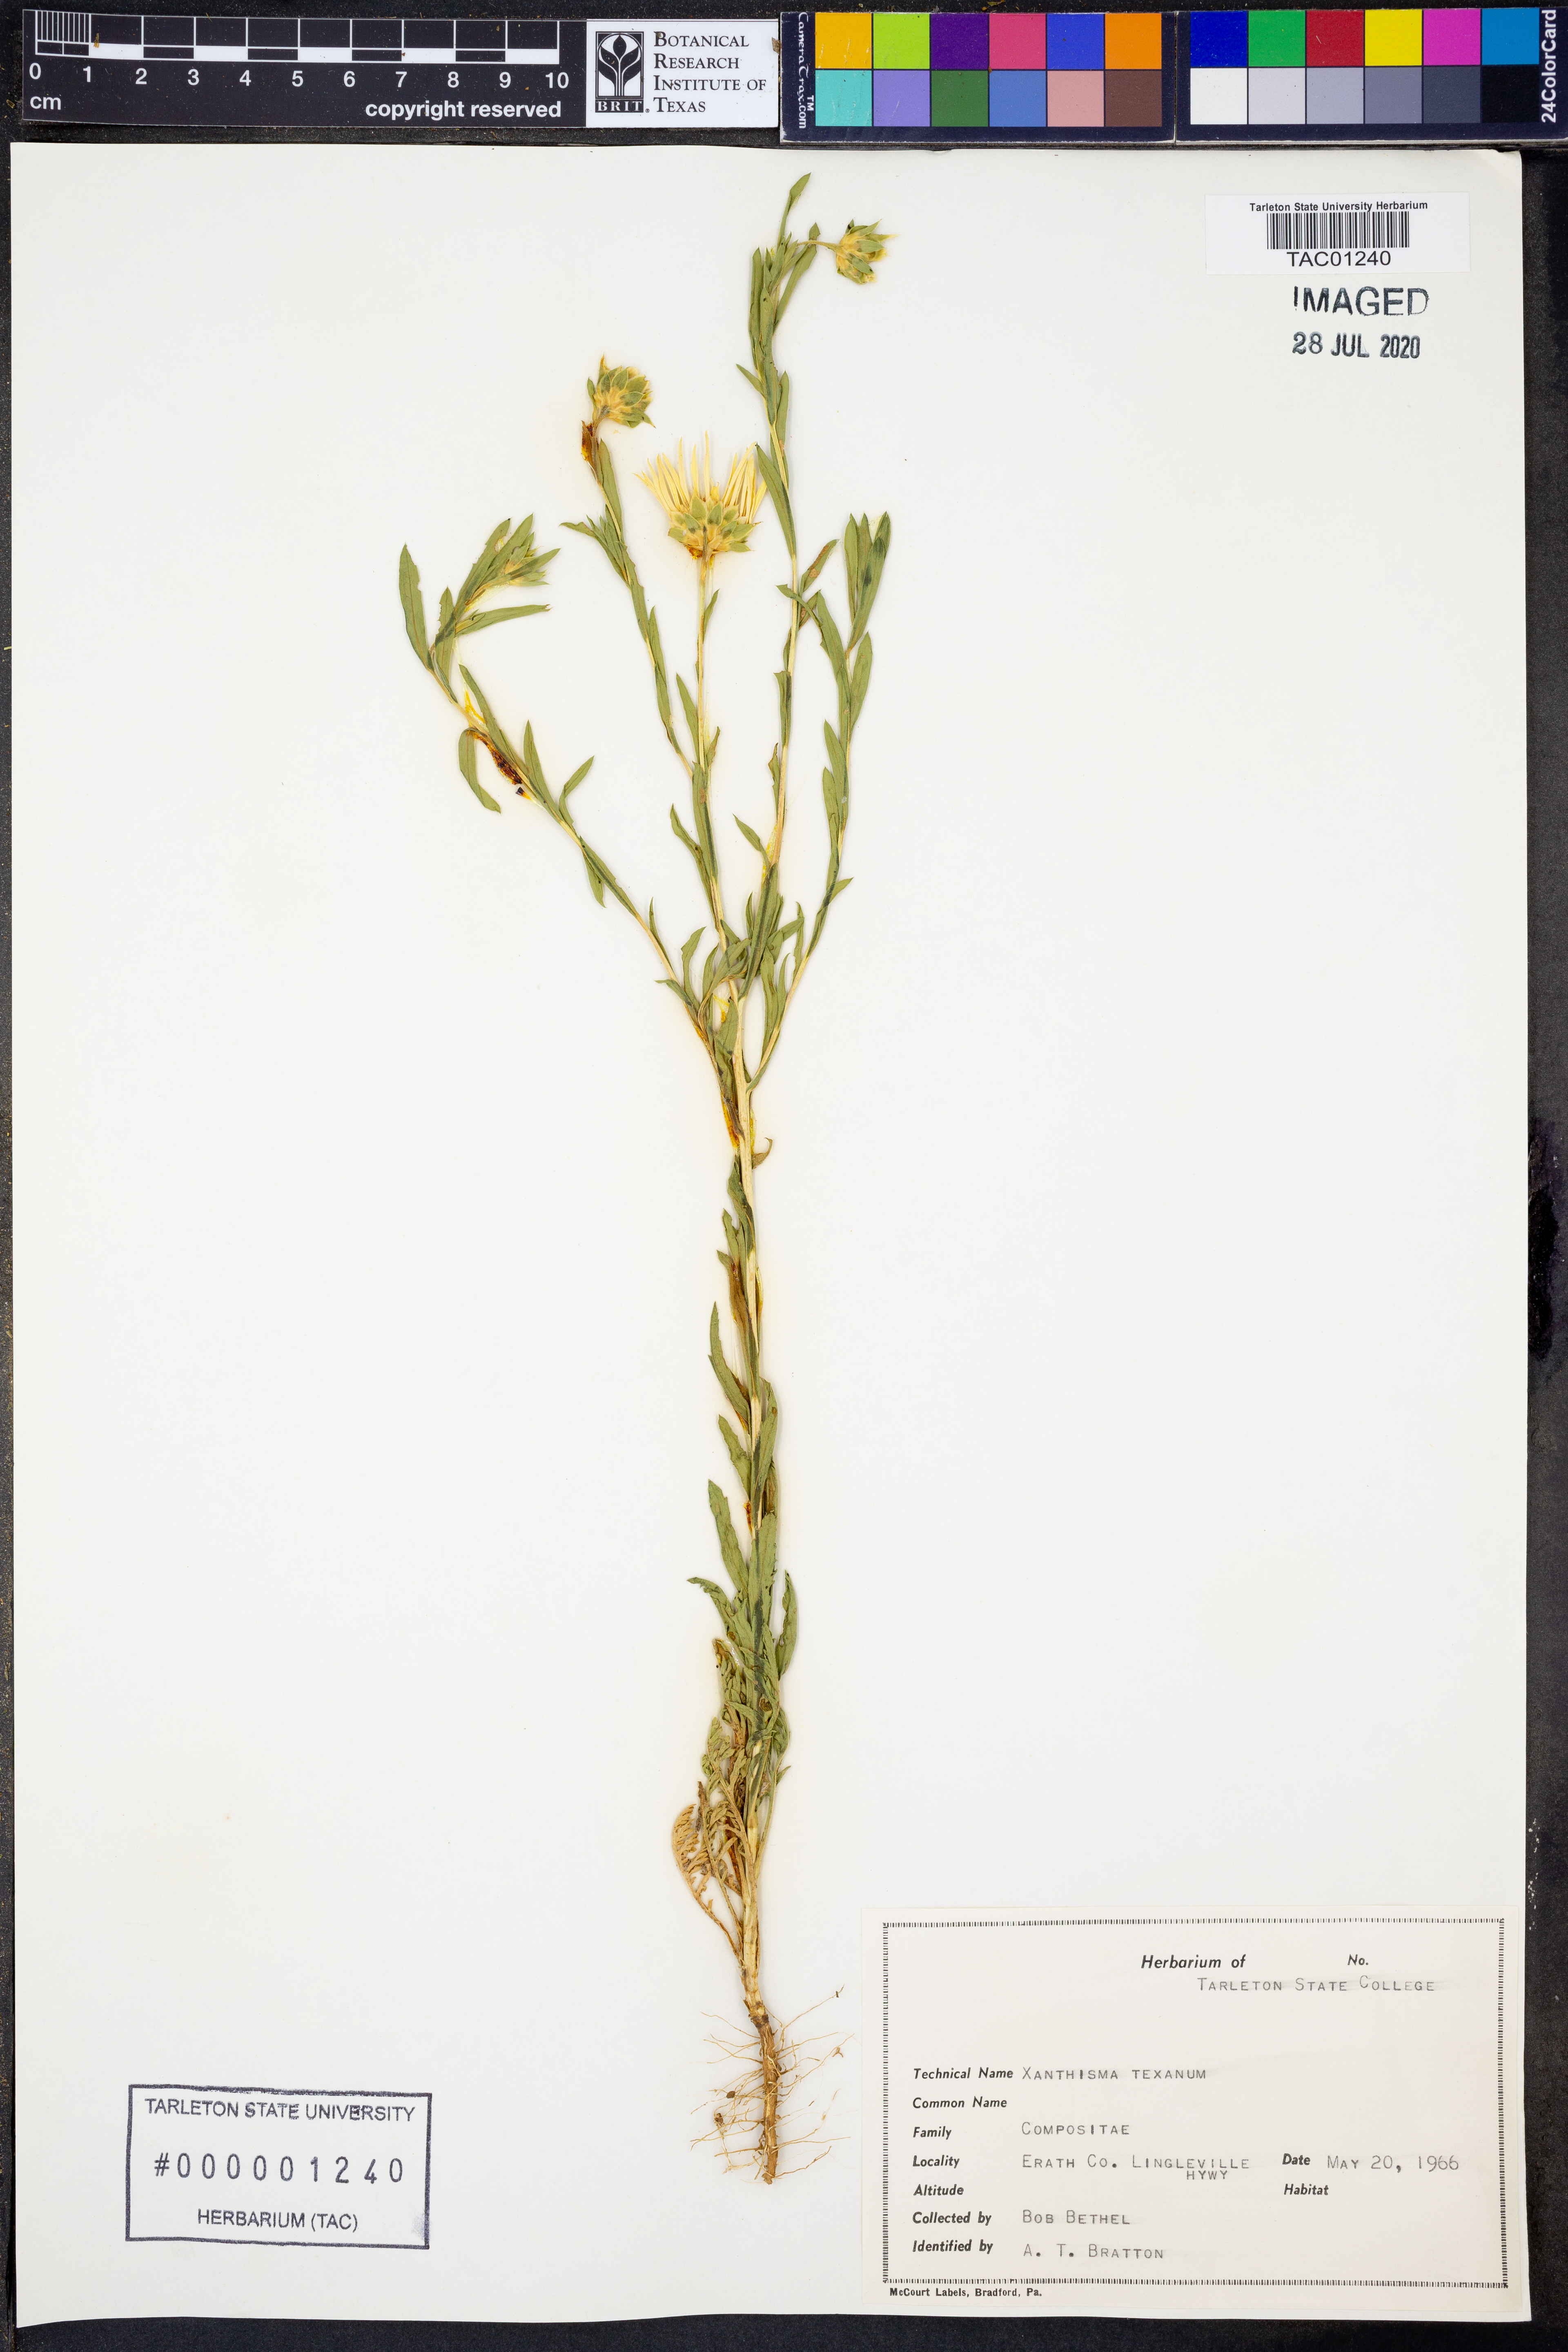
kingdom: Plantae
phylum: Tracheophyta
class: Magnoliopsida
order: Asterales
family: Asteraceae
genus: Xanthisma
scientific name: Xanthisma texanum
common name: Texas sleepy daisy
